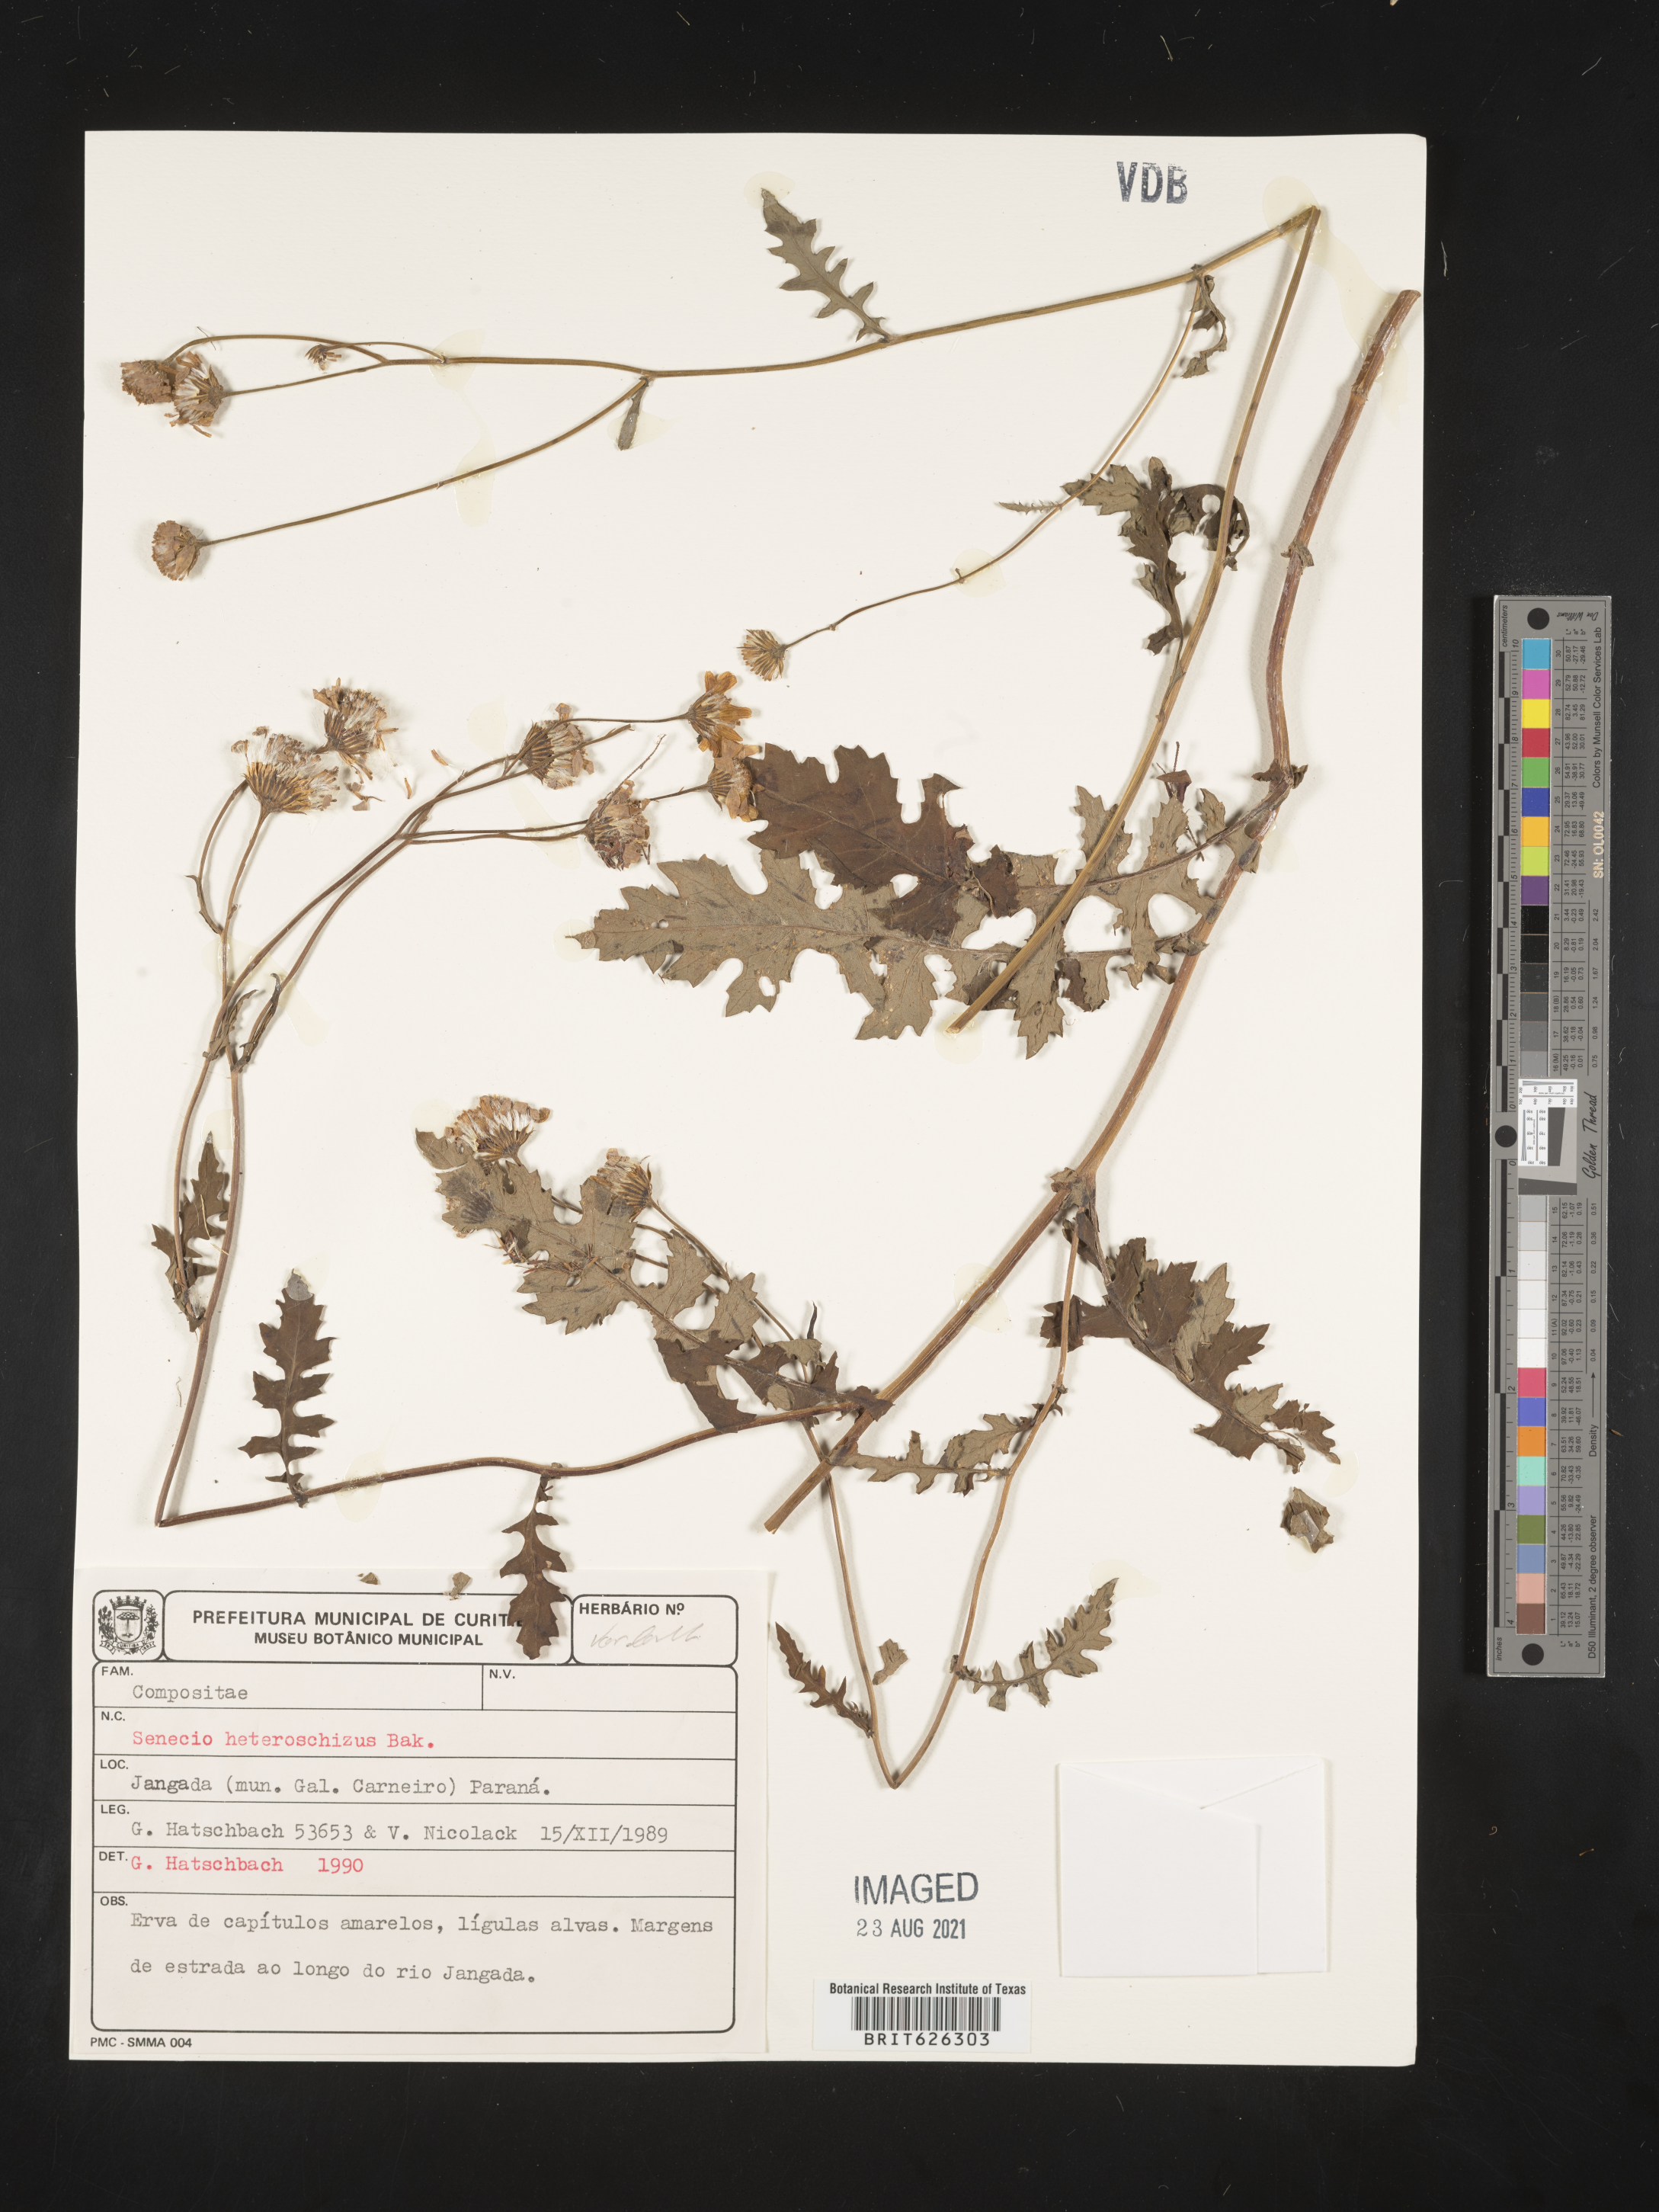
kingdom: Plantae
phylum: Tracheophyta
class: Magnoliopsida
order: Asterales
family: Asteraceae
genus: Senecio
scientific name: Senecio heteroschizus
